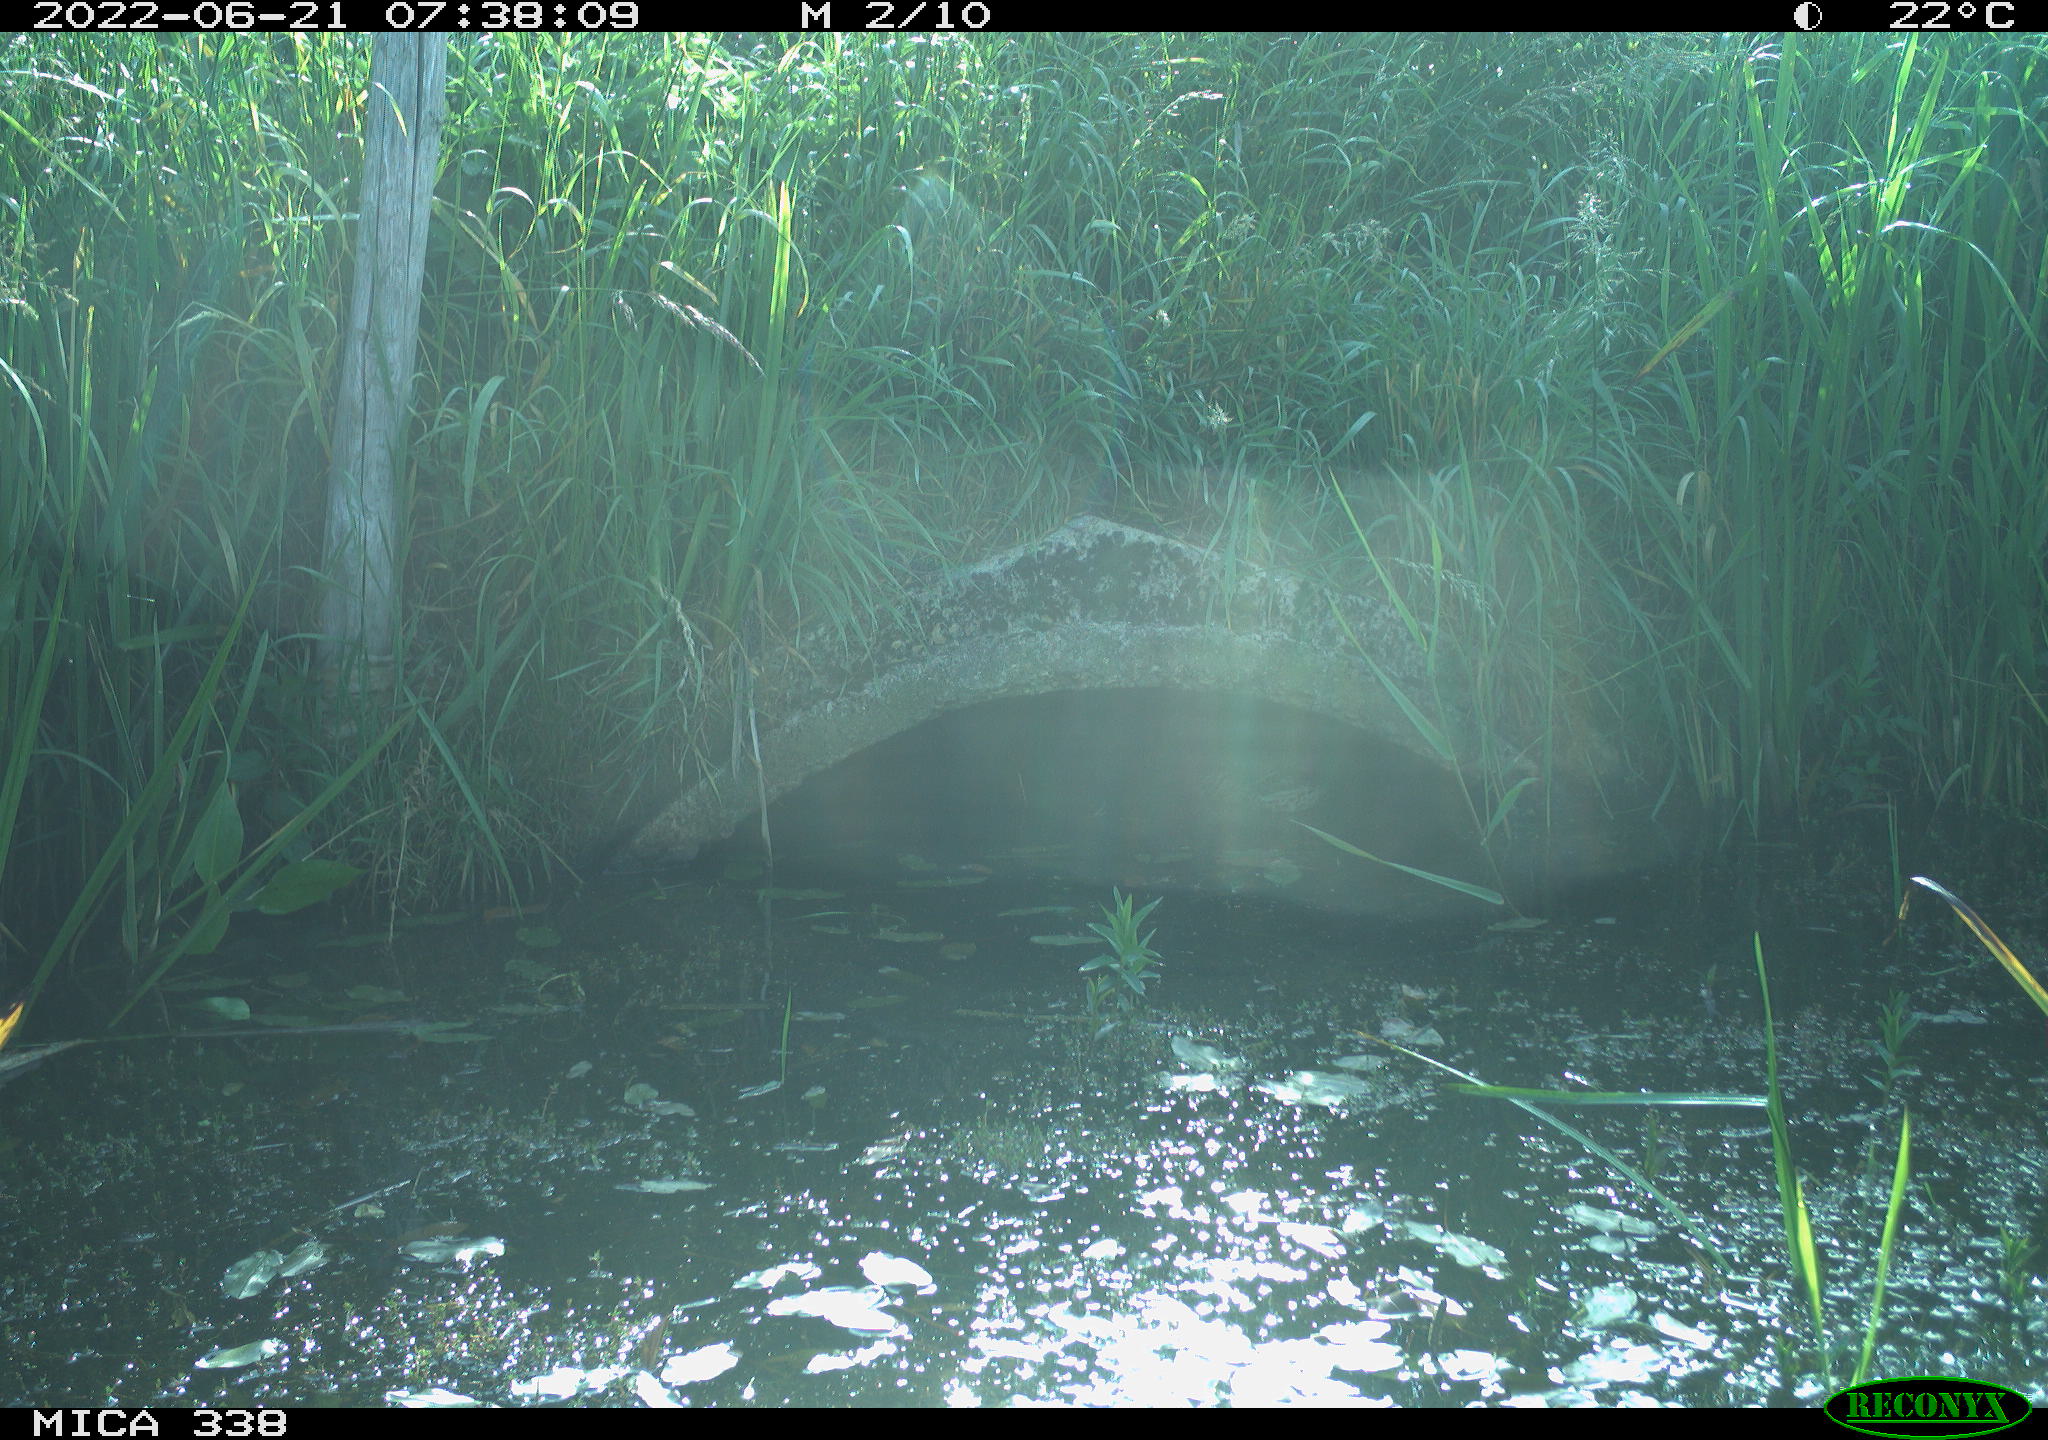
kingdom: Animalia
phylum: Chordata
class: Aves
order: Anseriformes
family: Anatidae
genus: Anas
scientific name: Anas platyrhynchos
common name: Mallard
